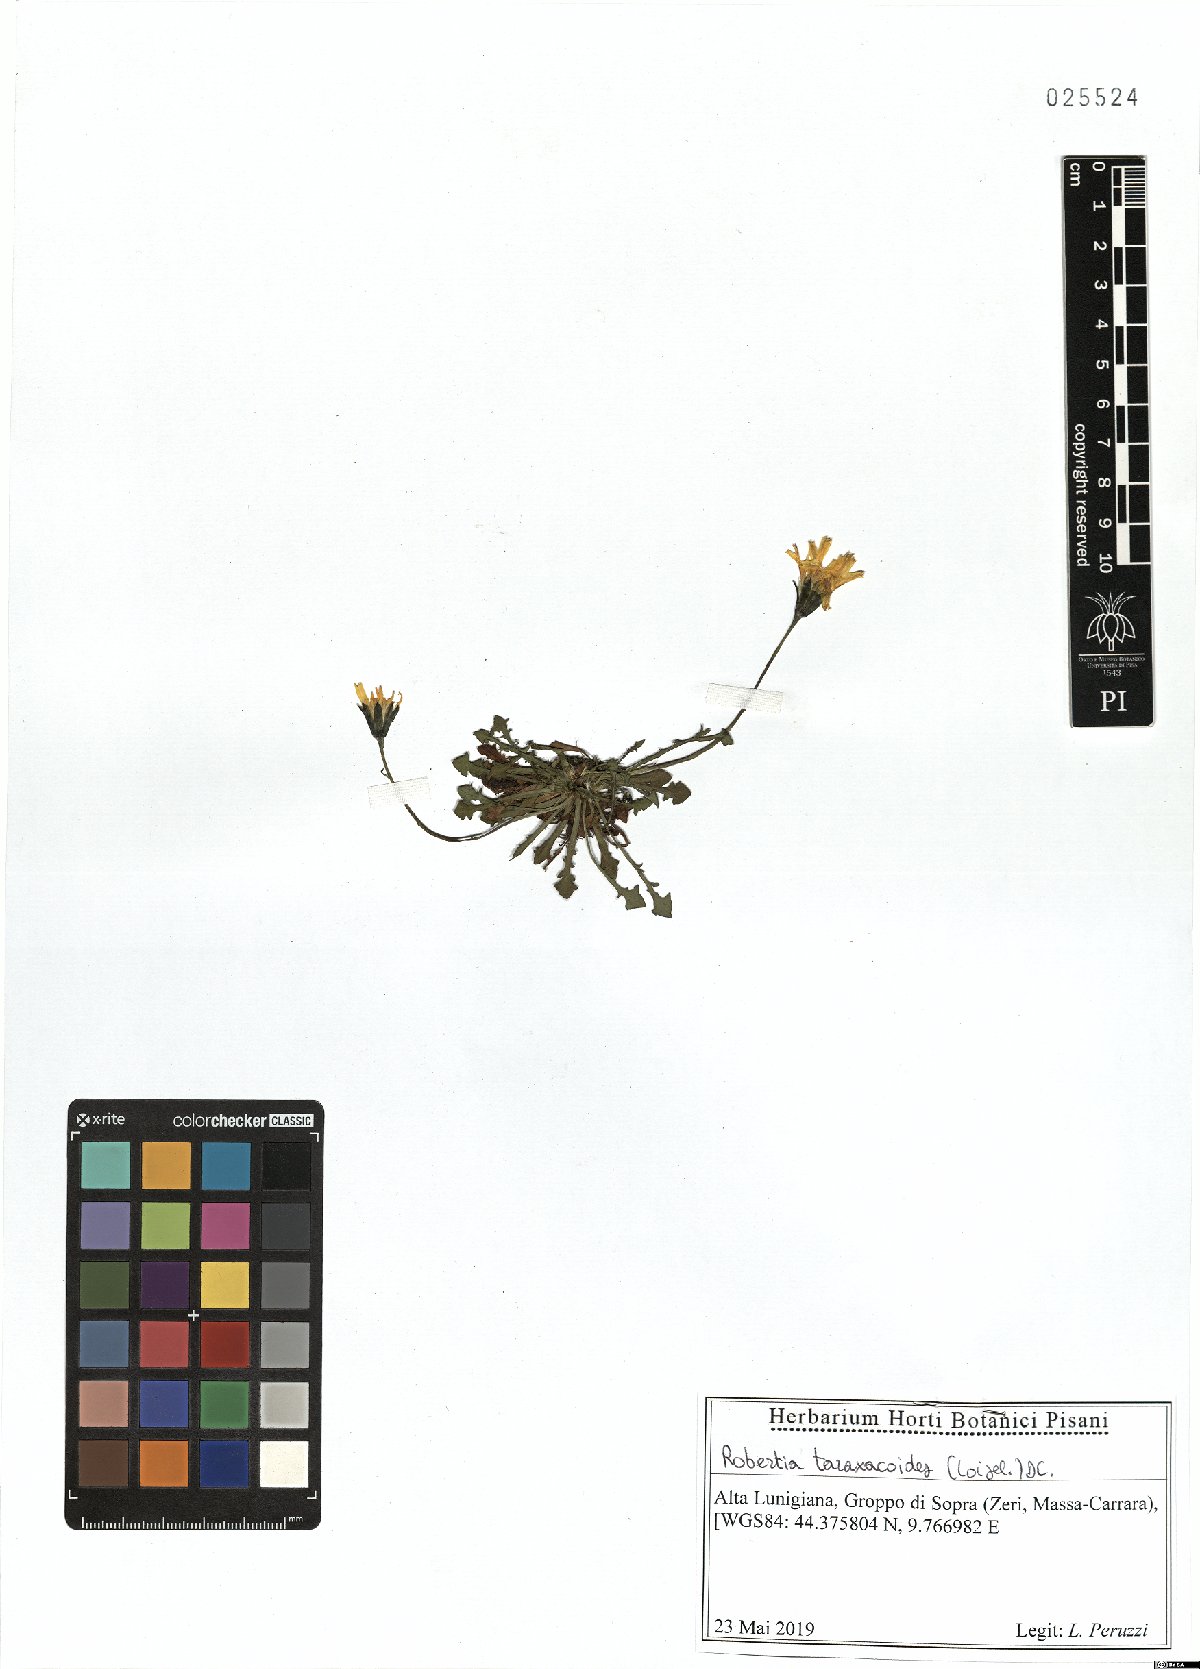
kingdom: Plantae
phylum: Tracheophyta
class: Magnoliopsida
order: Asterales
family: Asteraceae
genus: Hypochaeris
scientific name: Hypochaeris robertia
